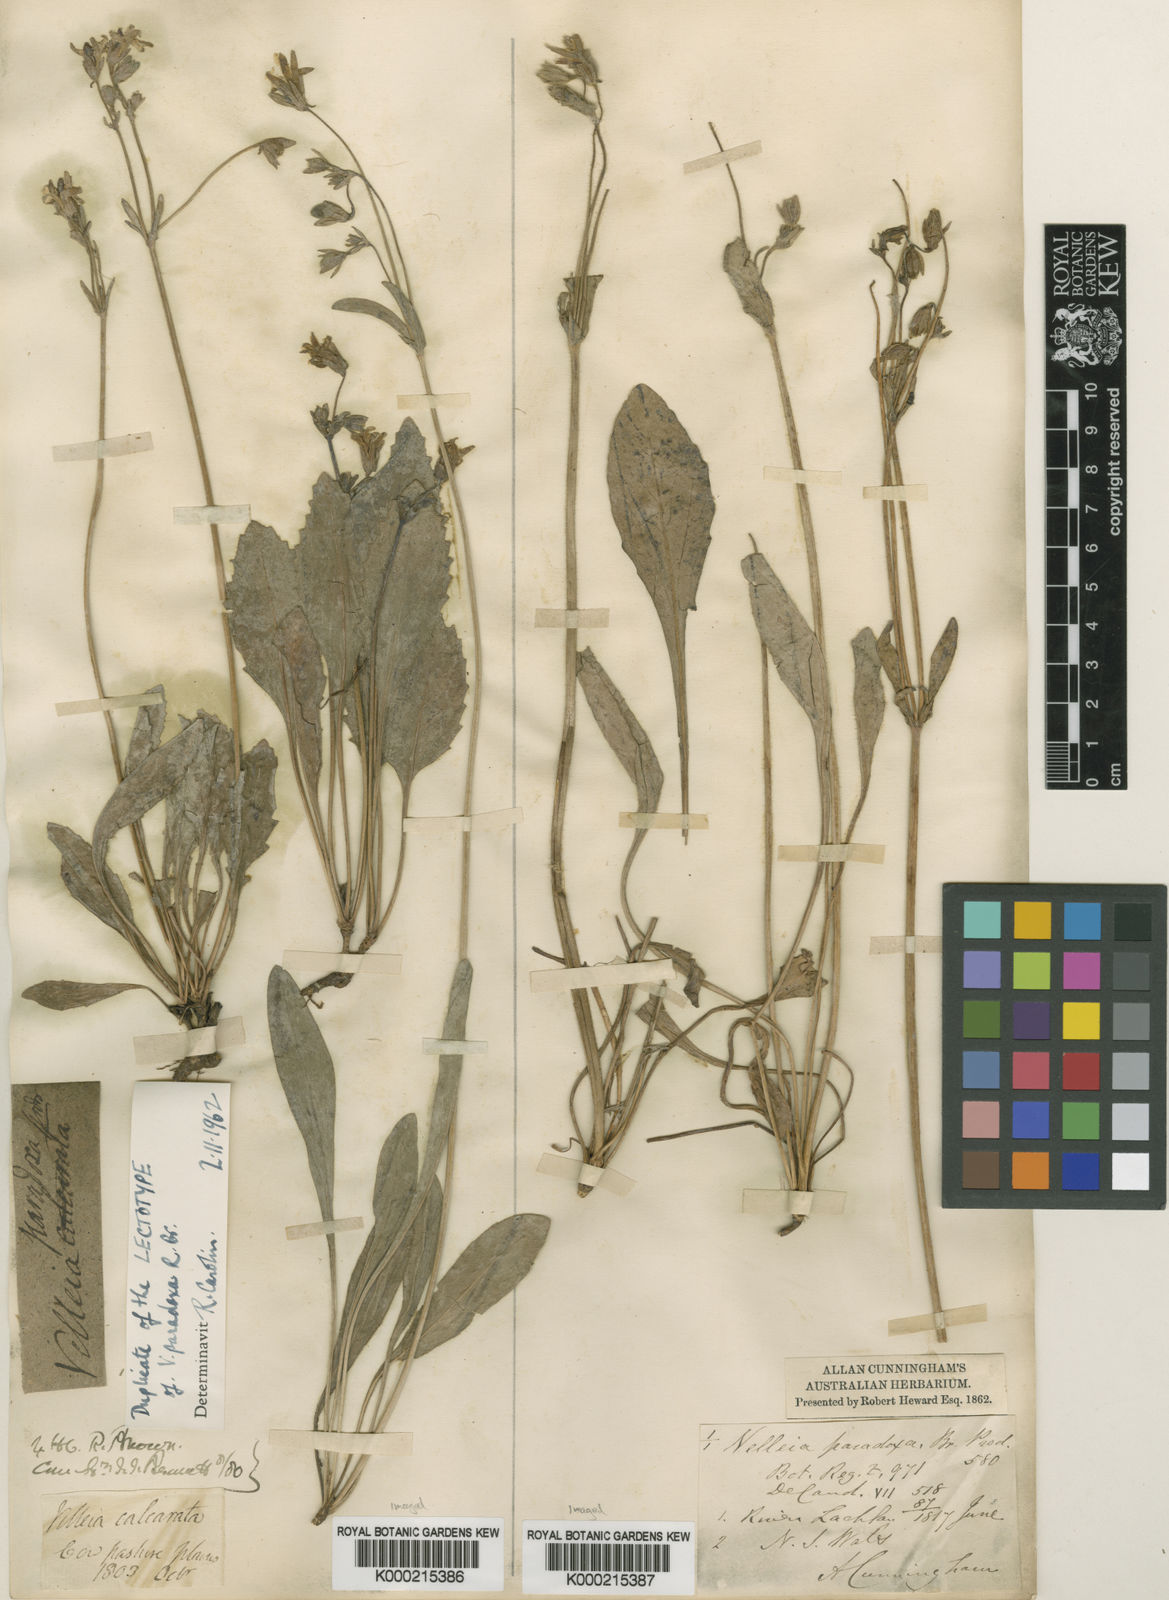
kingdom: Plantae
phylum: Tracheophyta
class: Magnoliopsida
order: Asterales
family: Goodeniaceae
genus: Goodenia
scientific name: Goodenia paradoxa
